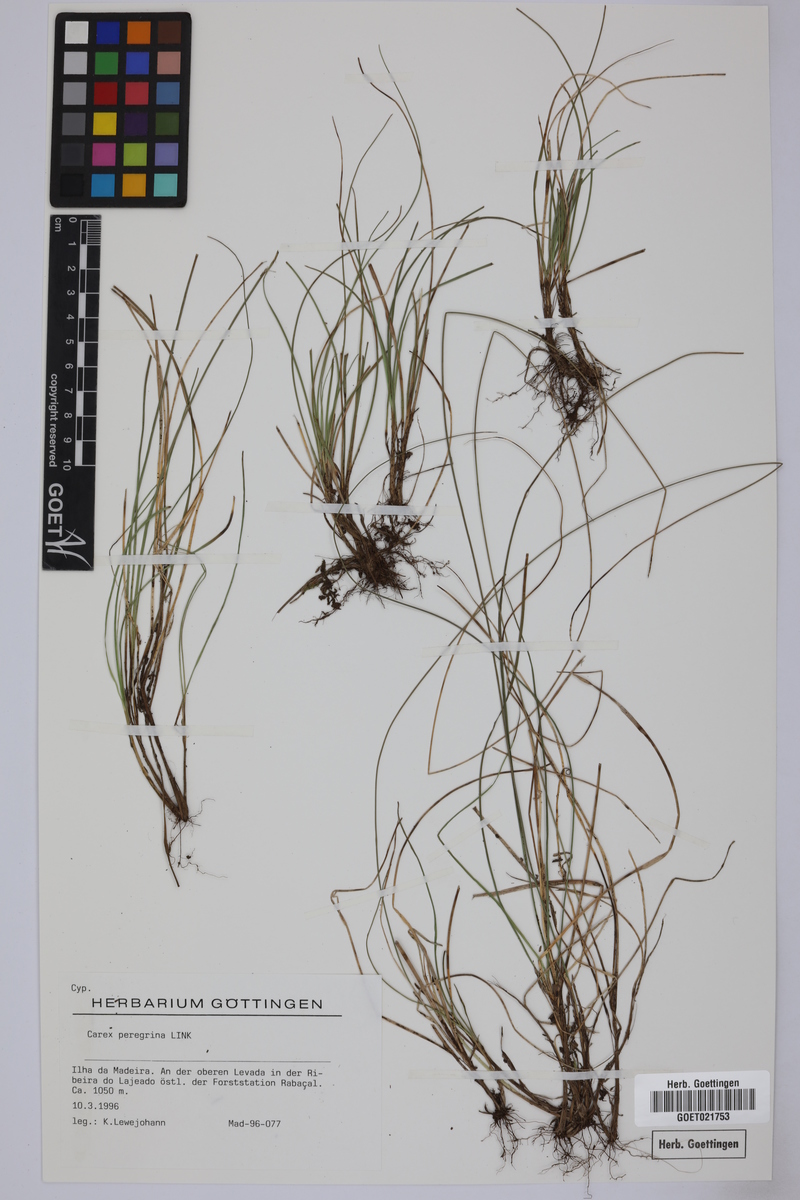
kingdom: Plantae
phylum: Tracheophyta
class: Liliopsida
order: Poales
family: Cyperaceae
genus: Carex
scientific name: Carex peregrina
